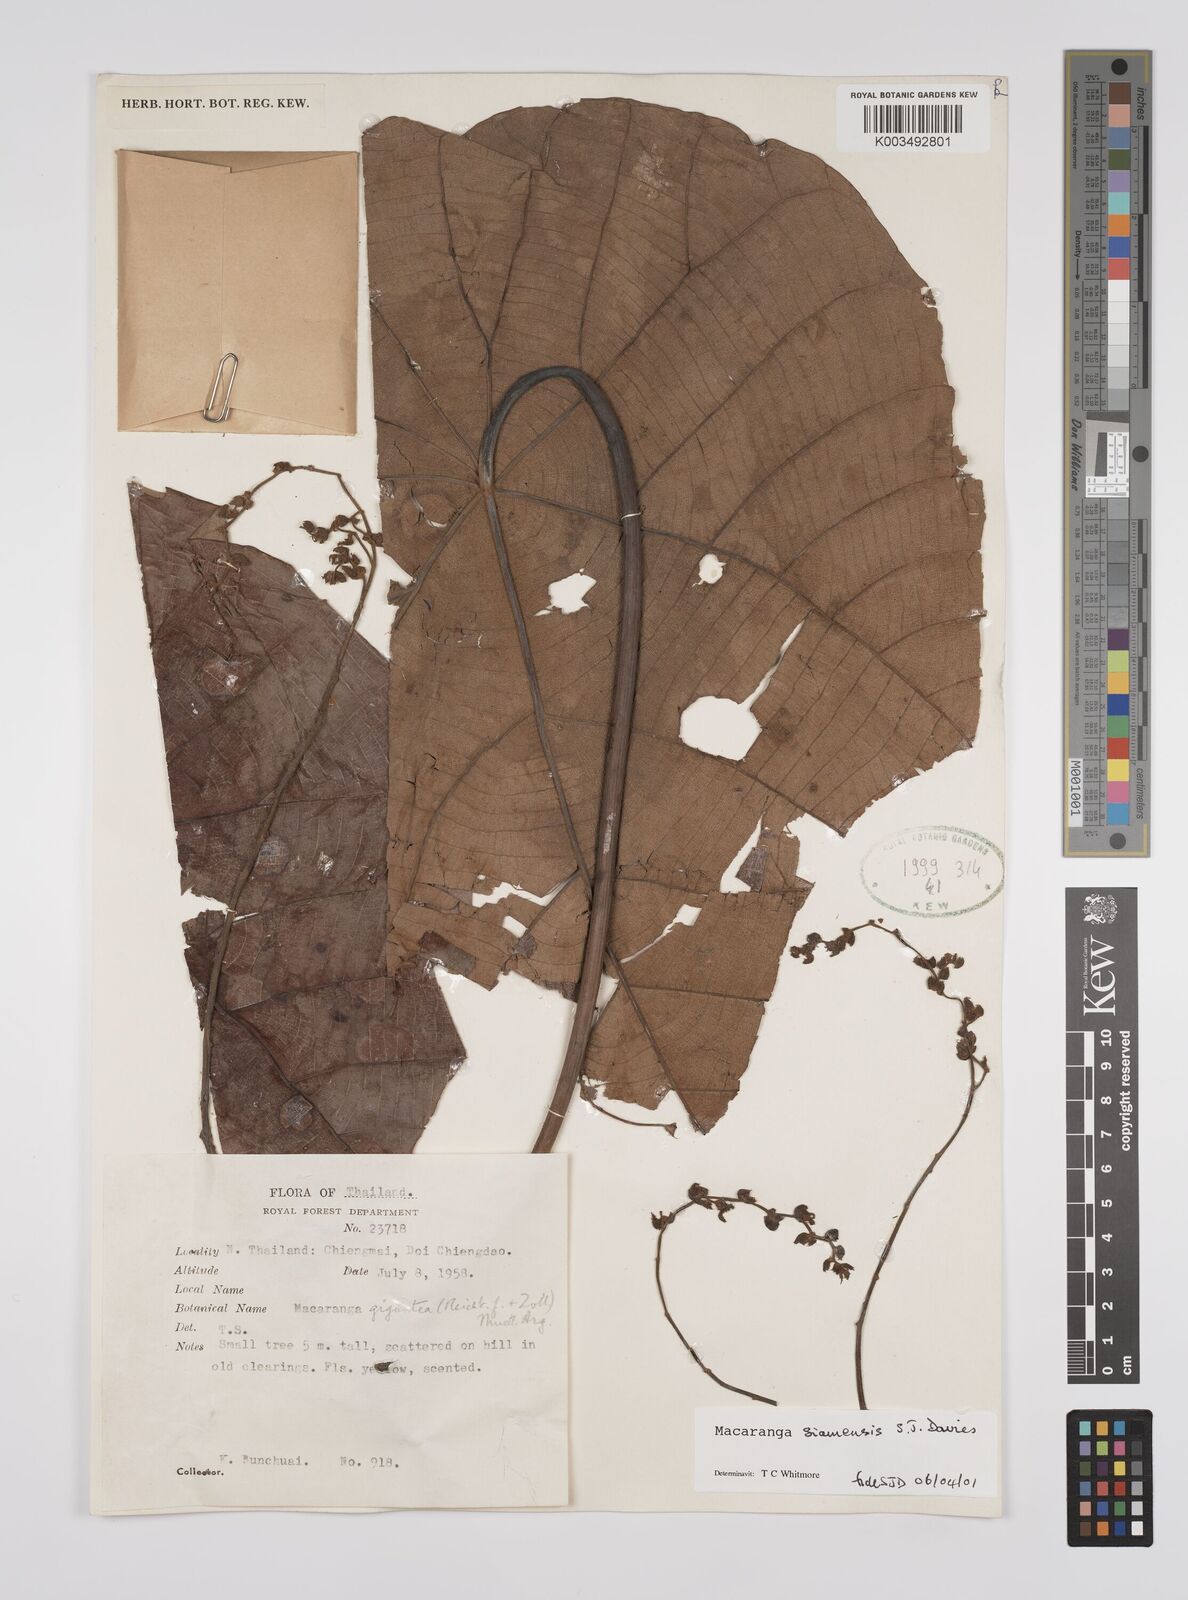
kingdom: Plantae
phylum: Tracheophyta
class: Magnoliopsida
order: Malpighiales
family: Euphorbiaceae
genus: Macaranga
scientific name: Macaranga siamensis
